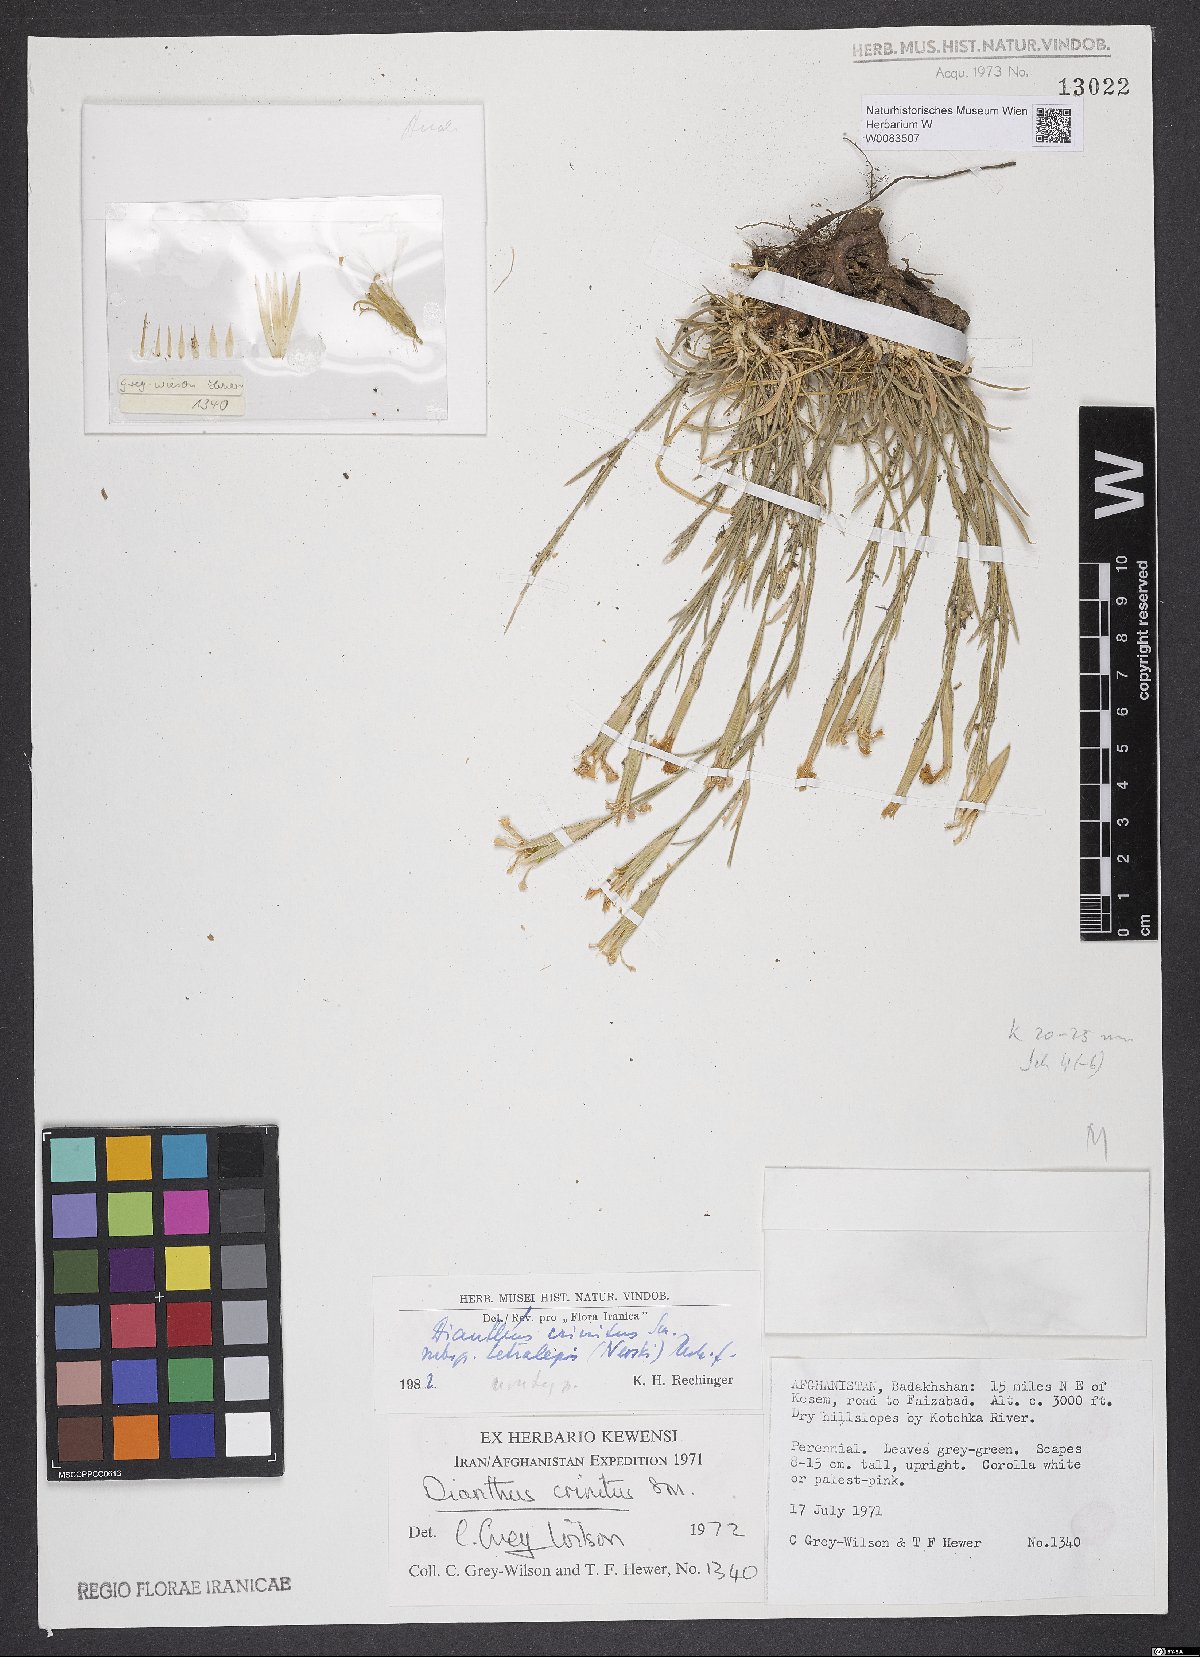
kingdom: Plantae
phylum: Tracheophyta
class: Magnoliopsida
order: Caryophyllales
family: Caryophyllaceae
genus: Dianthus
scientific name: Dianthus crinitus
